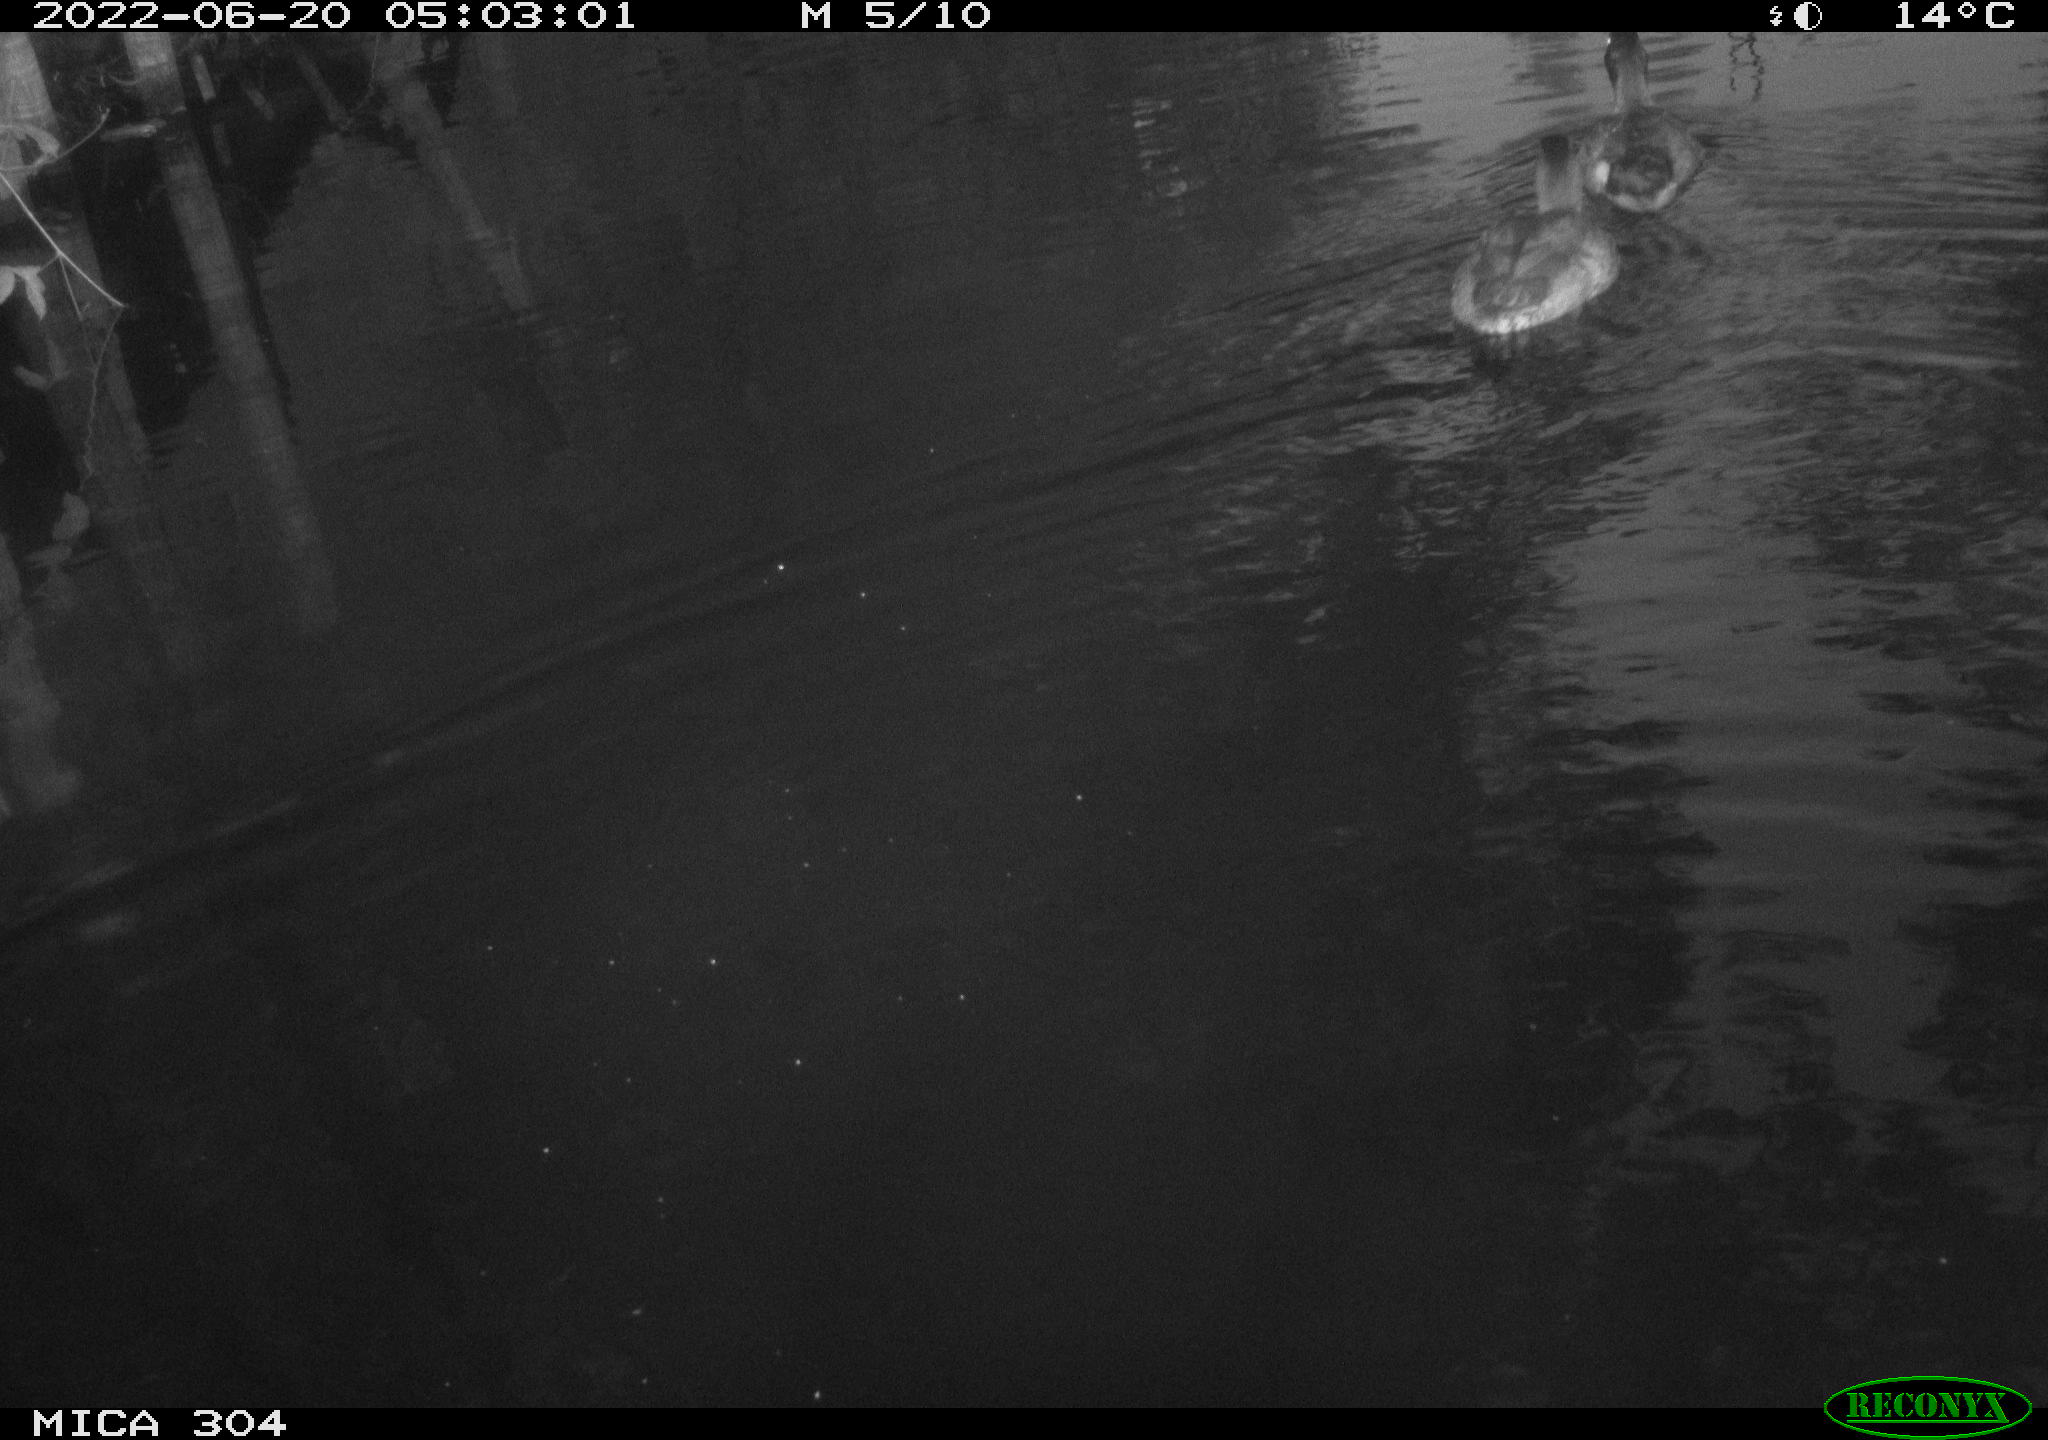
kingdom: Animalia
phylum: Chordata
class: Aves
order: Anseriformes
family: Anatidae
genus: Anas
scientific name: Anas platyrhynchos
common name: Mallard
